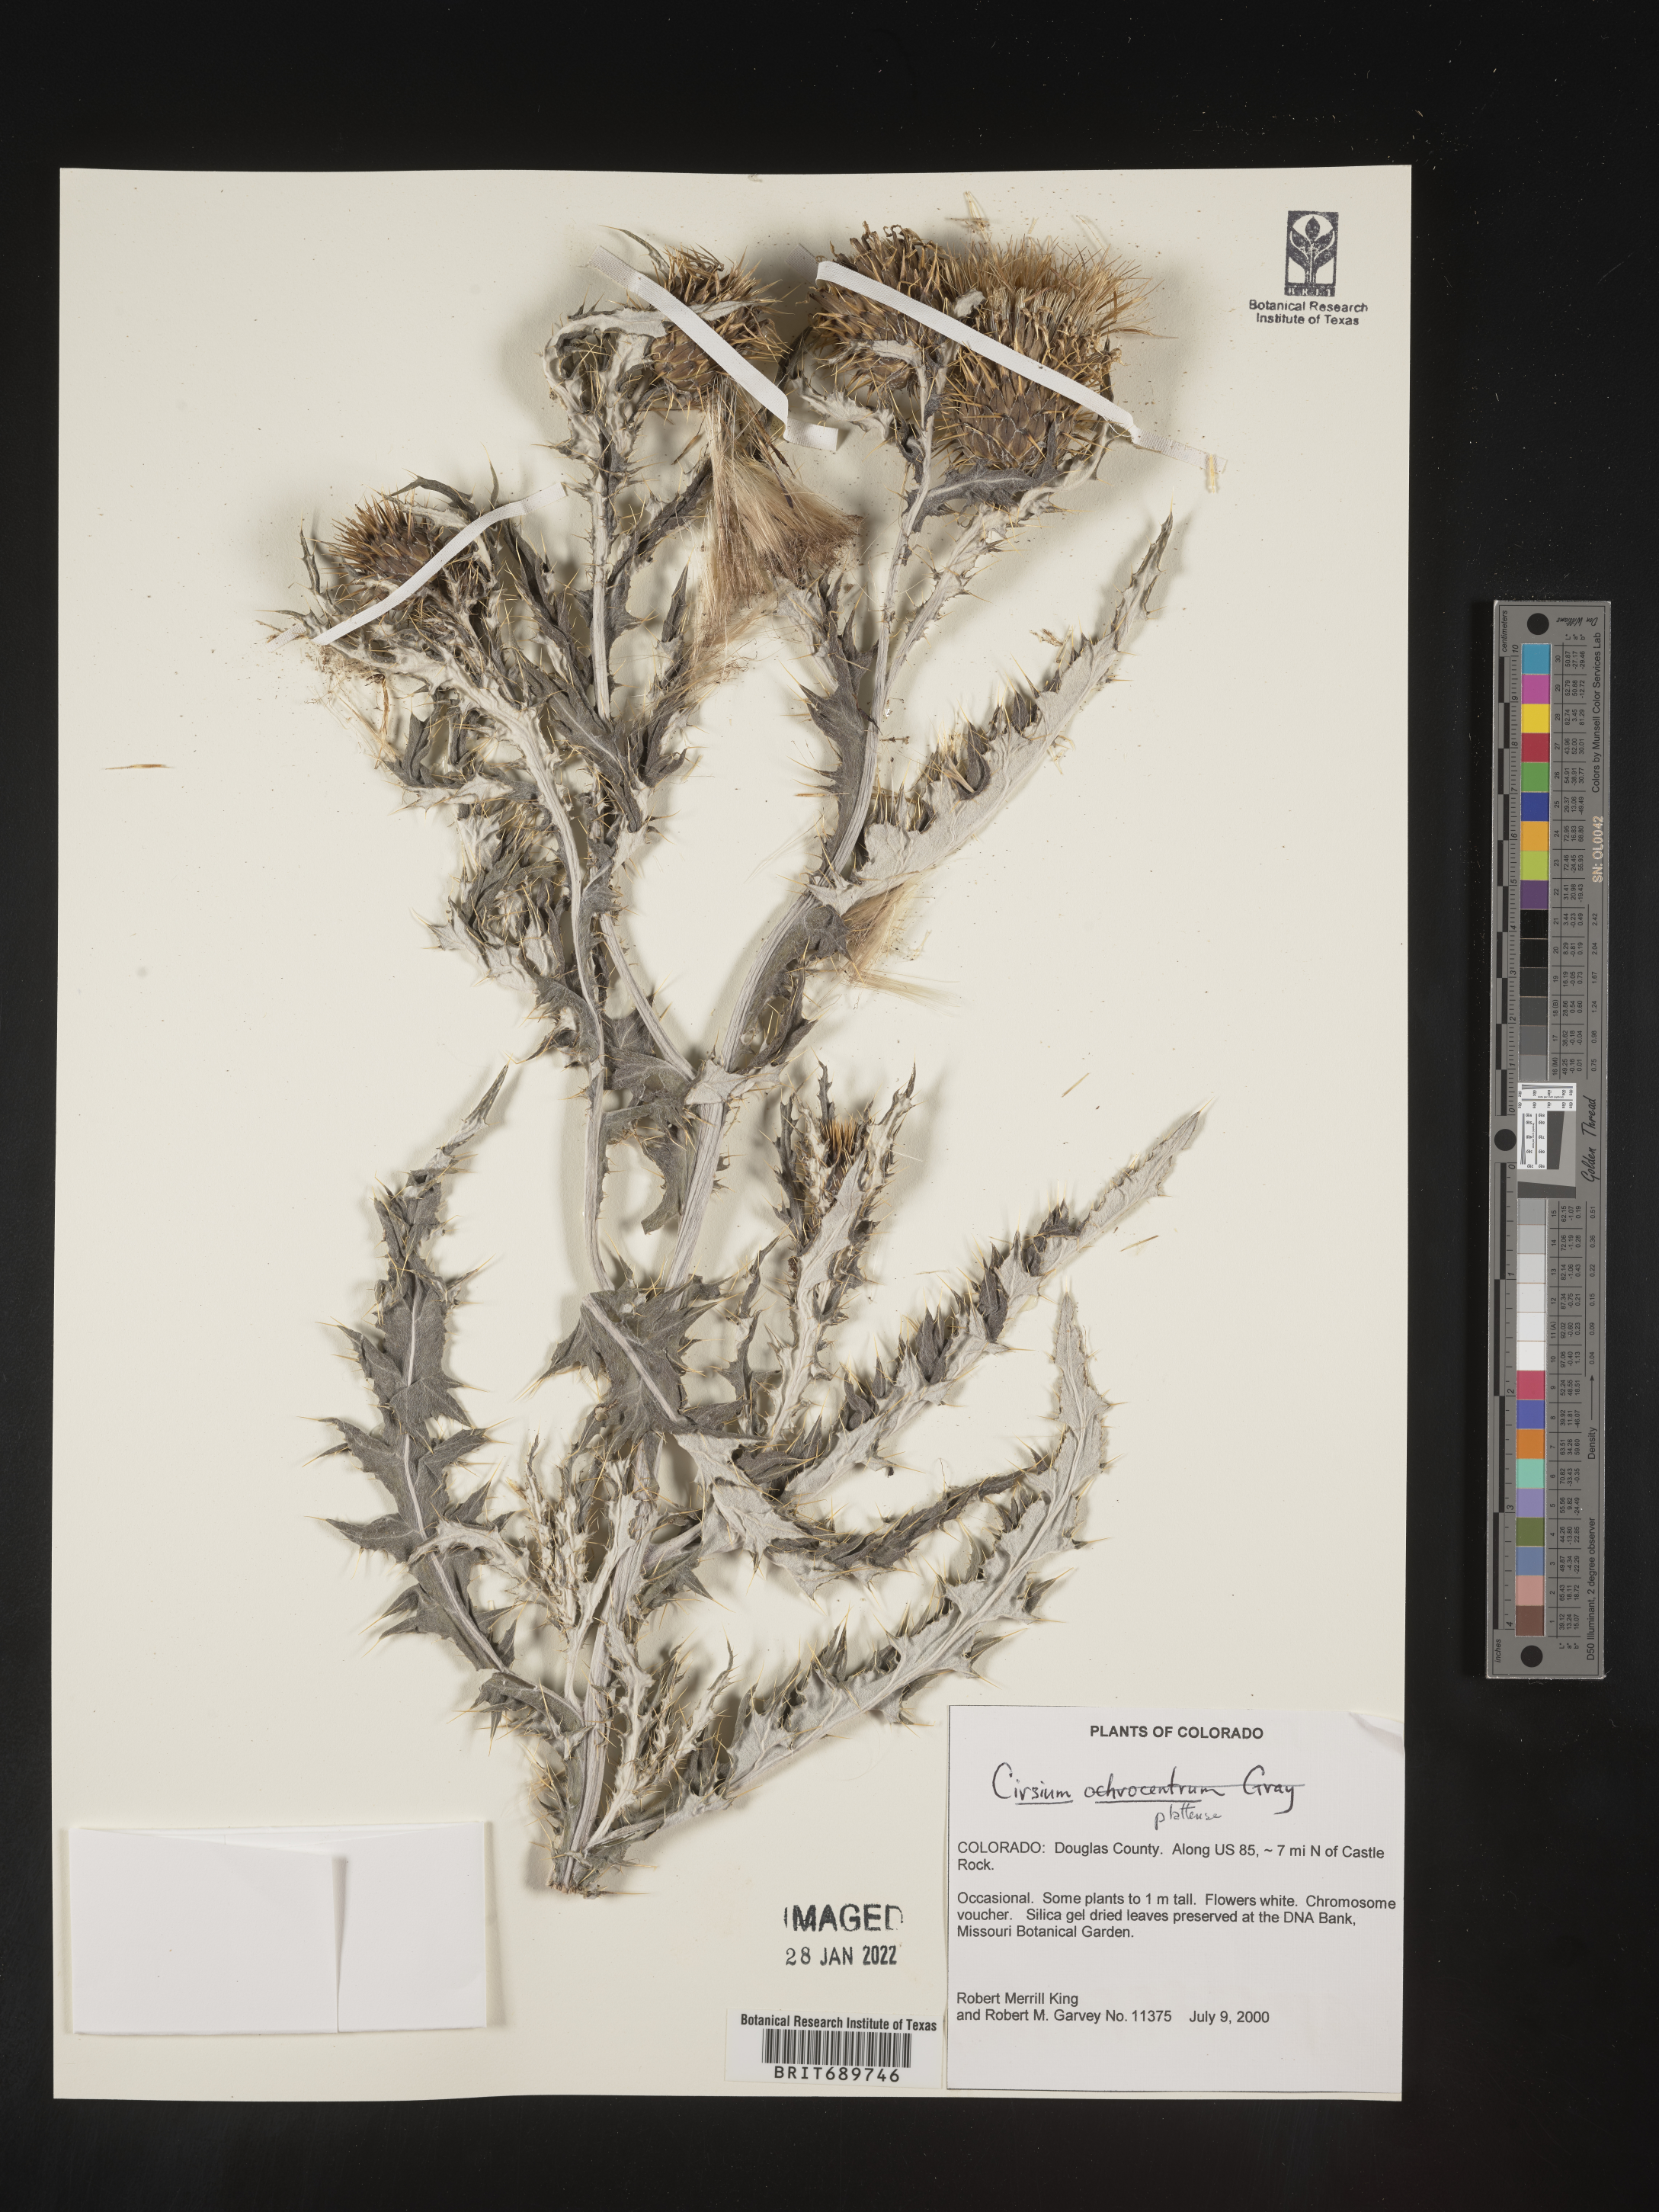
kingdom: Plantae
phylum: Tracheophyta
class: Magnoliopsida
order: Asterales
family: Asteraceae
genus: Cirsium
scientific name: Cirsium canescens
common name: Prairie thistle
